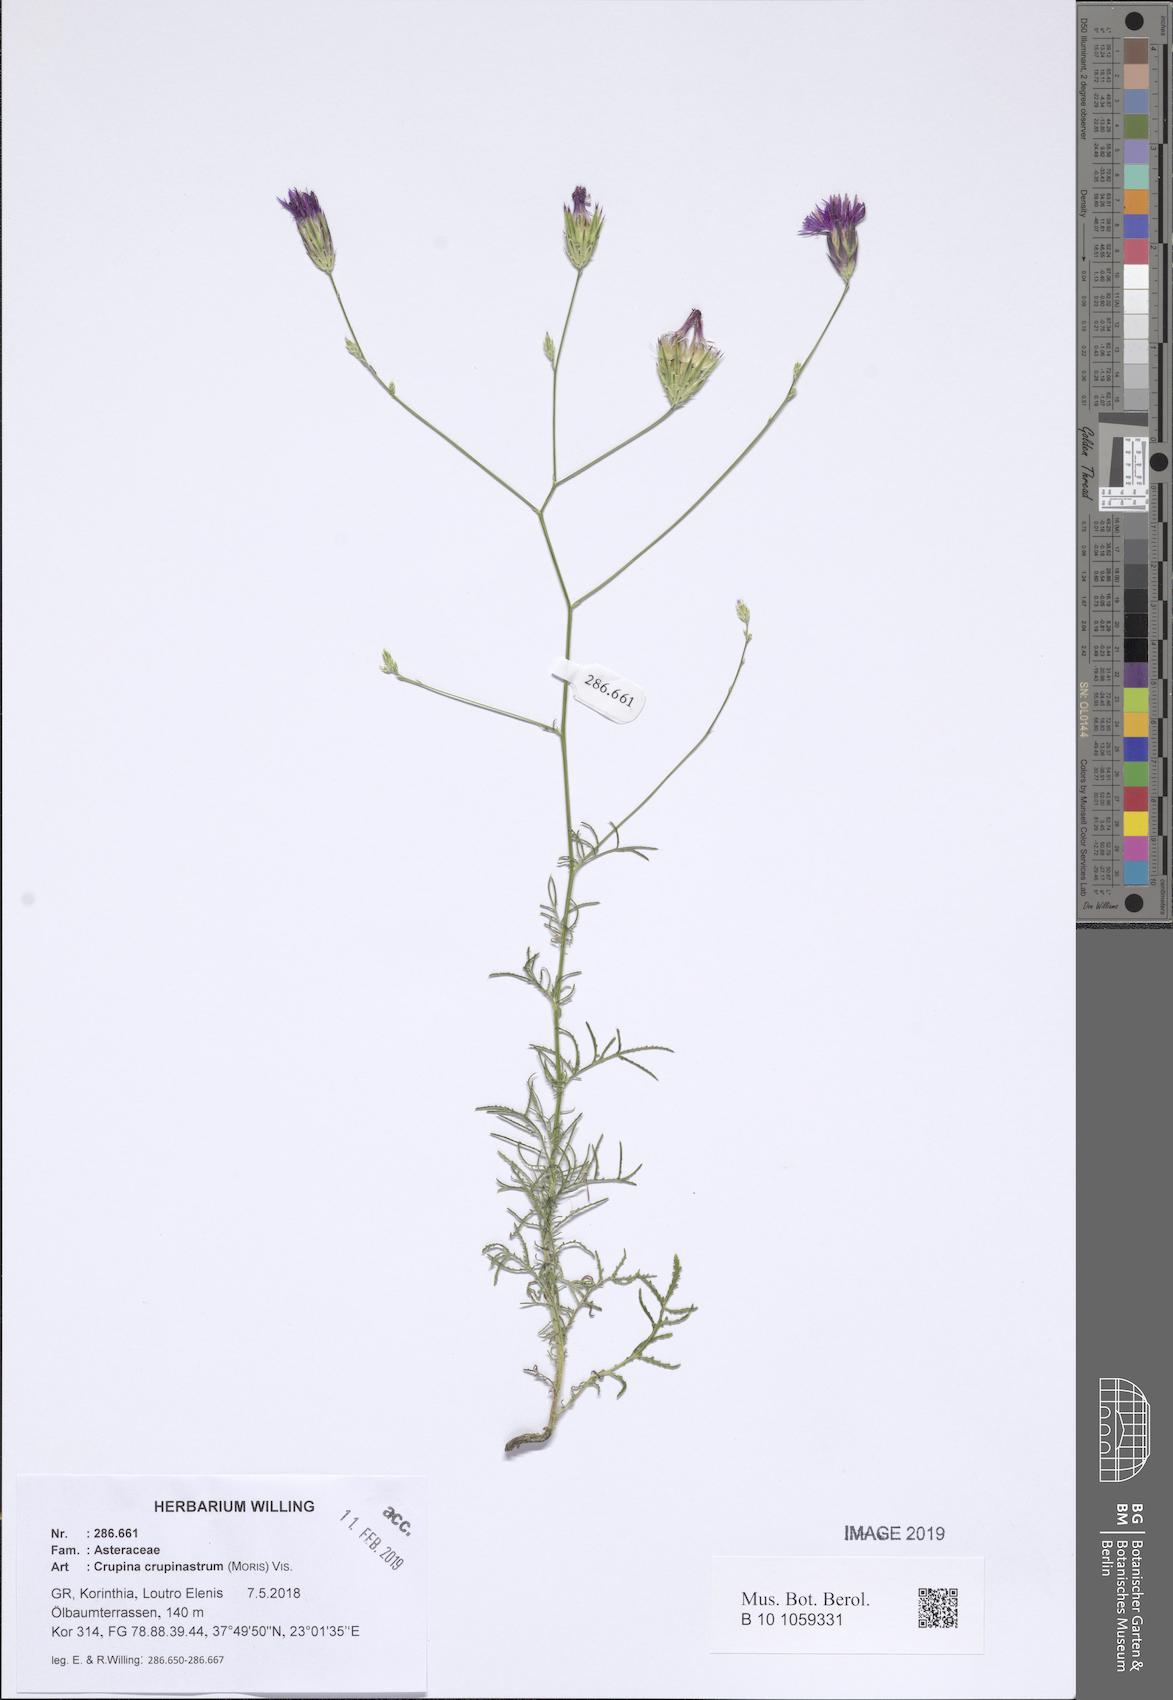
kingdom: Plantae
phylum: Tracheophyta
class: Magnoliopsida
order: Asterales
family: Asteraceae
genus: Crupina
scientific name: Crupina crupinastrum
